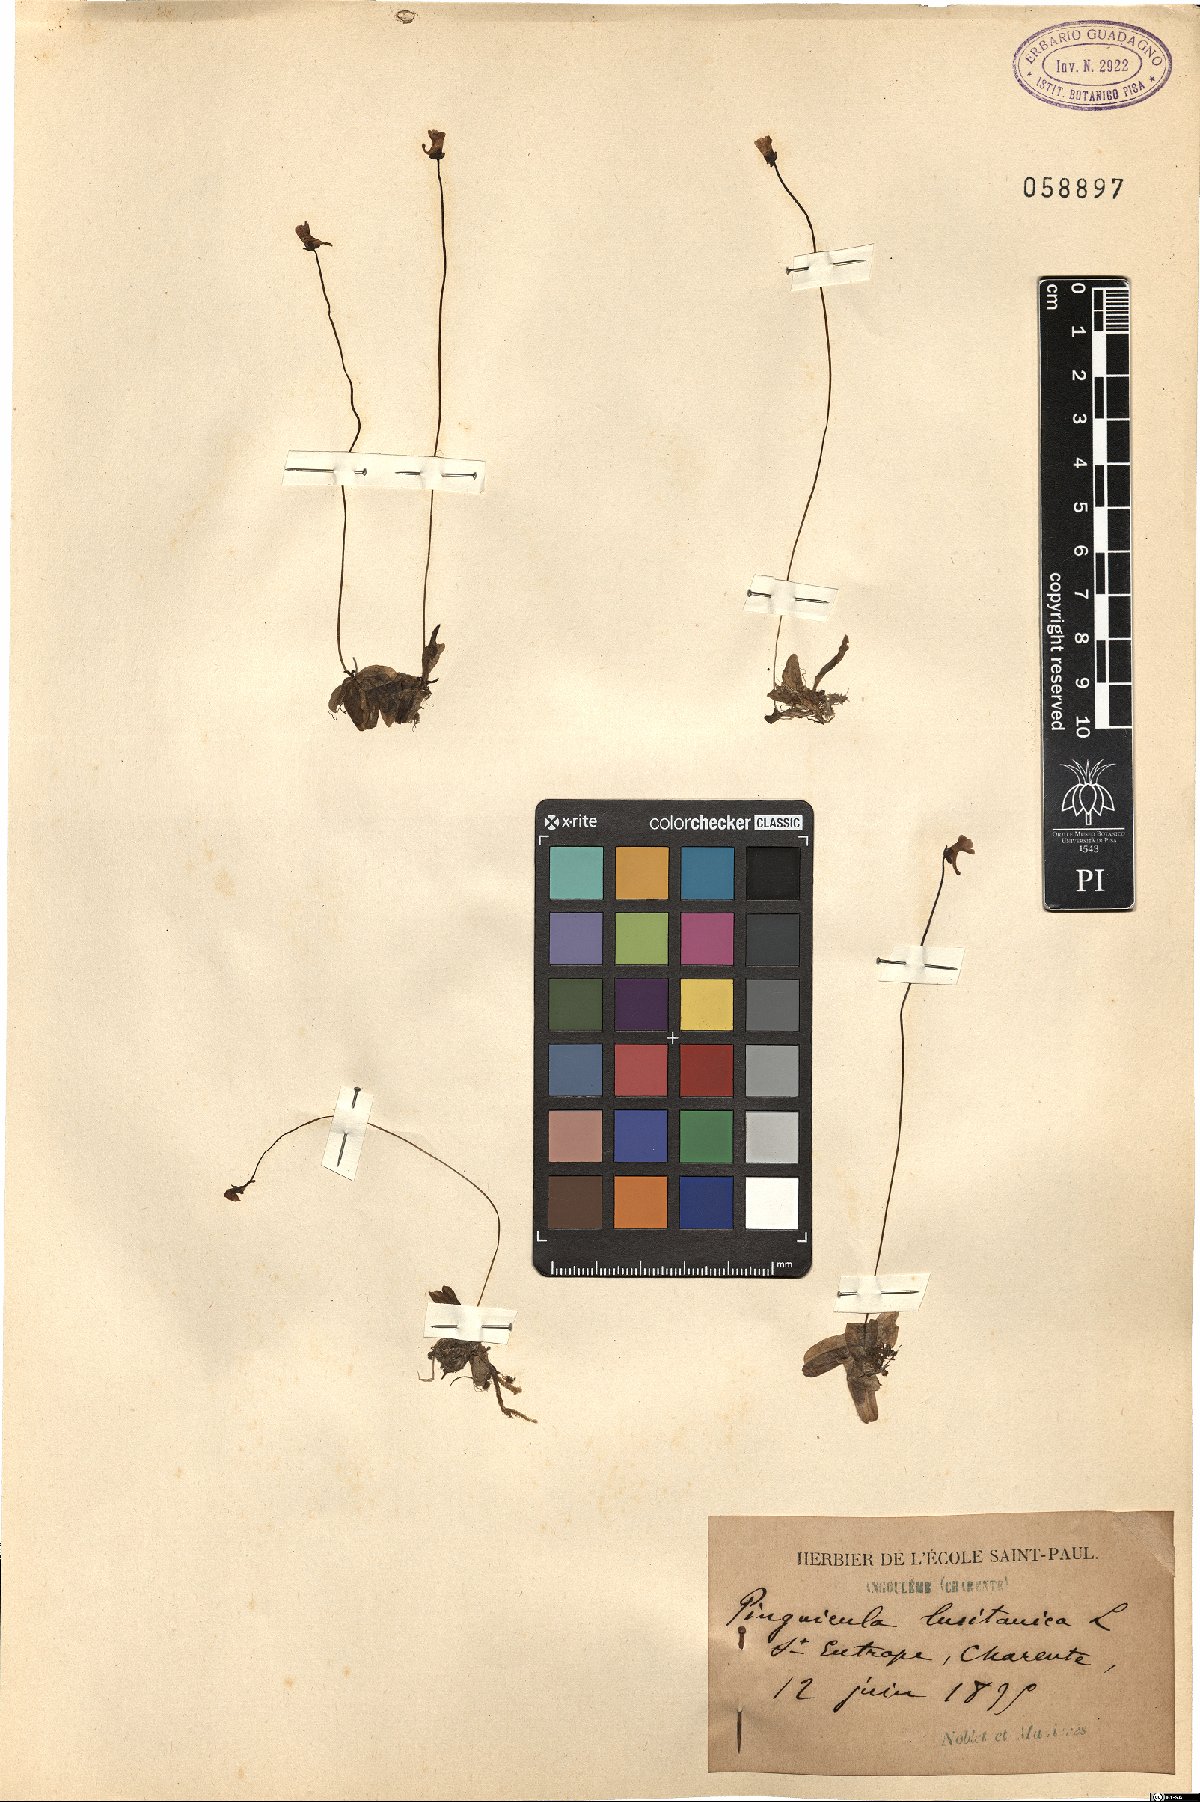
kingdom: Plantae
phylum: Tracheophyta
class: Magnoliopsida
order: Lamiales
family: Lentibulariaceae
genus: Pinguicula
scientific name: Pinguicula lusitanica
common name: Pale butterwort
